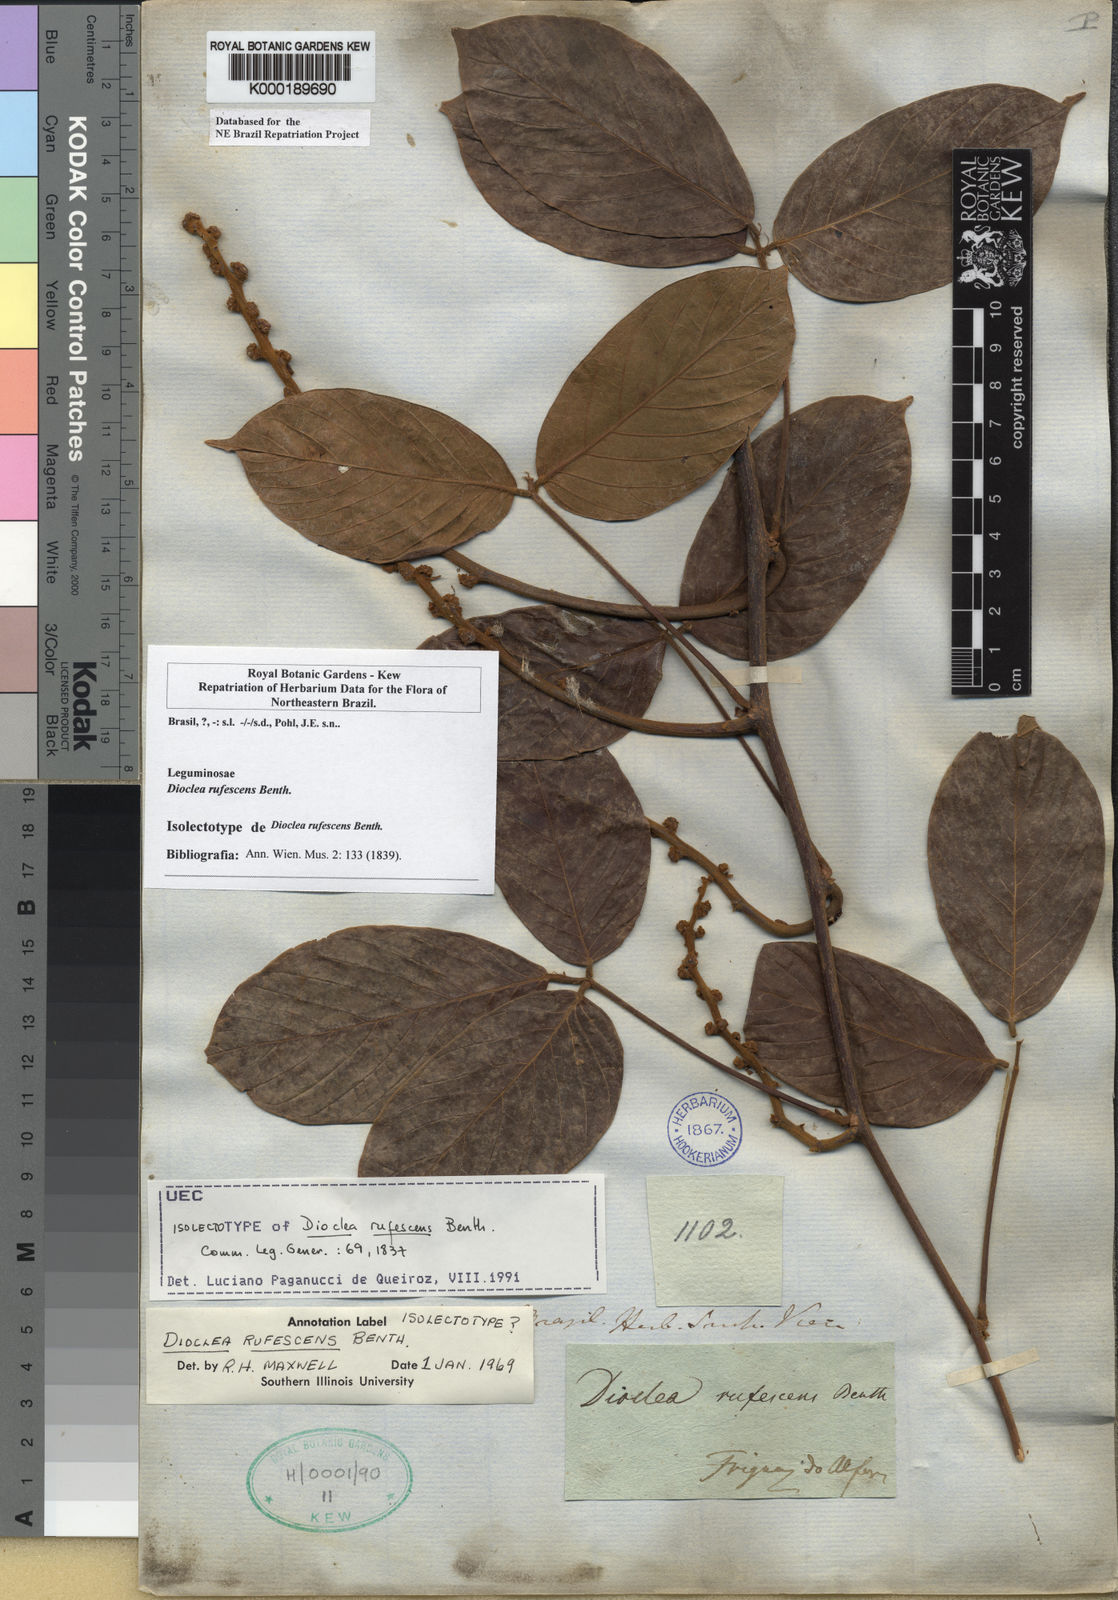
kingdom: Plantae
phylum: Tracheophyta
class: Magnoliopsida
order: Fabales
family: Fabaceae
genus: Macropsychanthus
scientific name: Macropsychanthus rufescens
